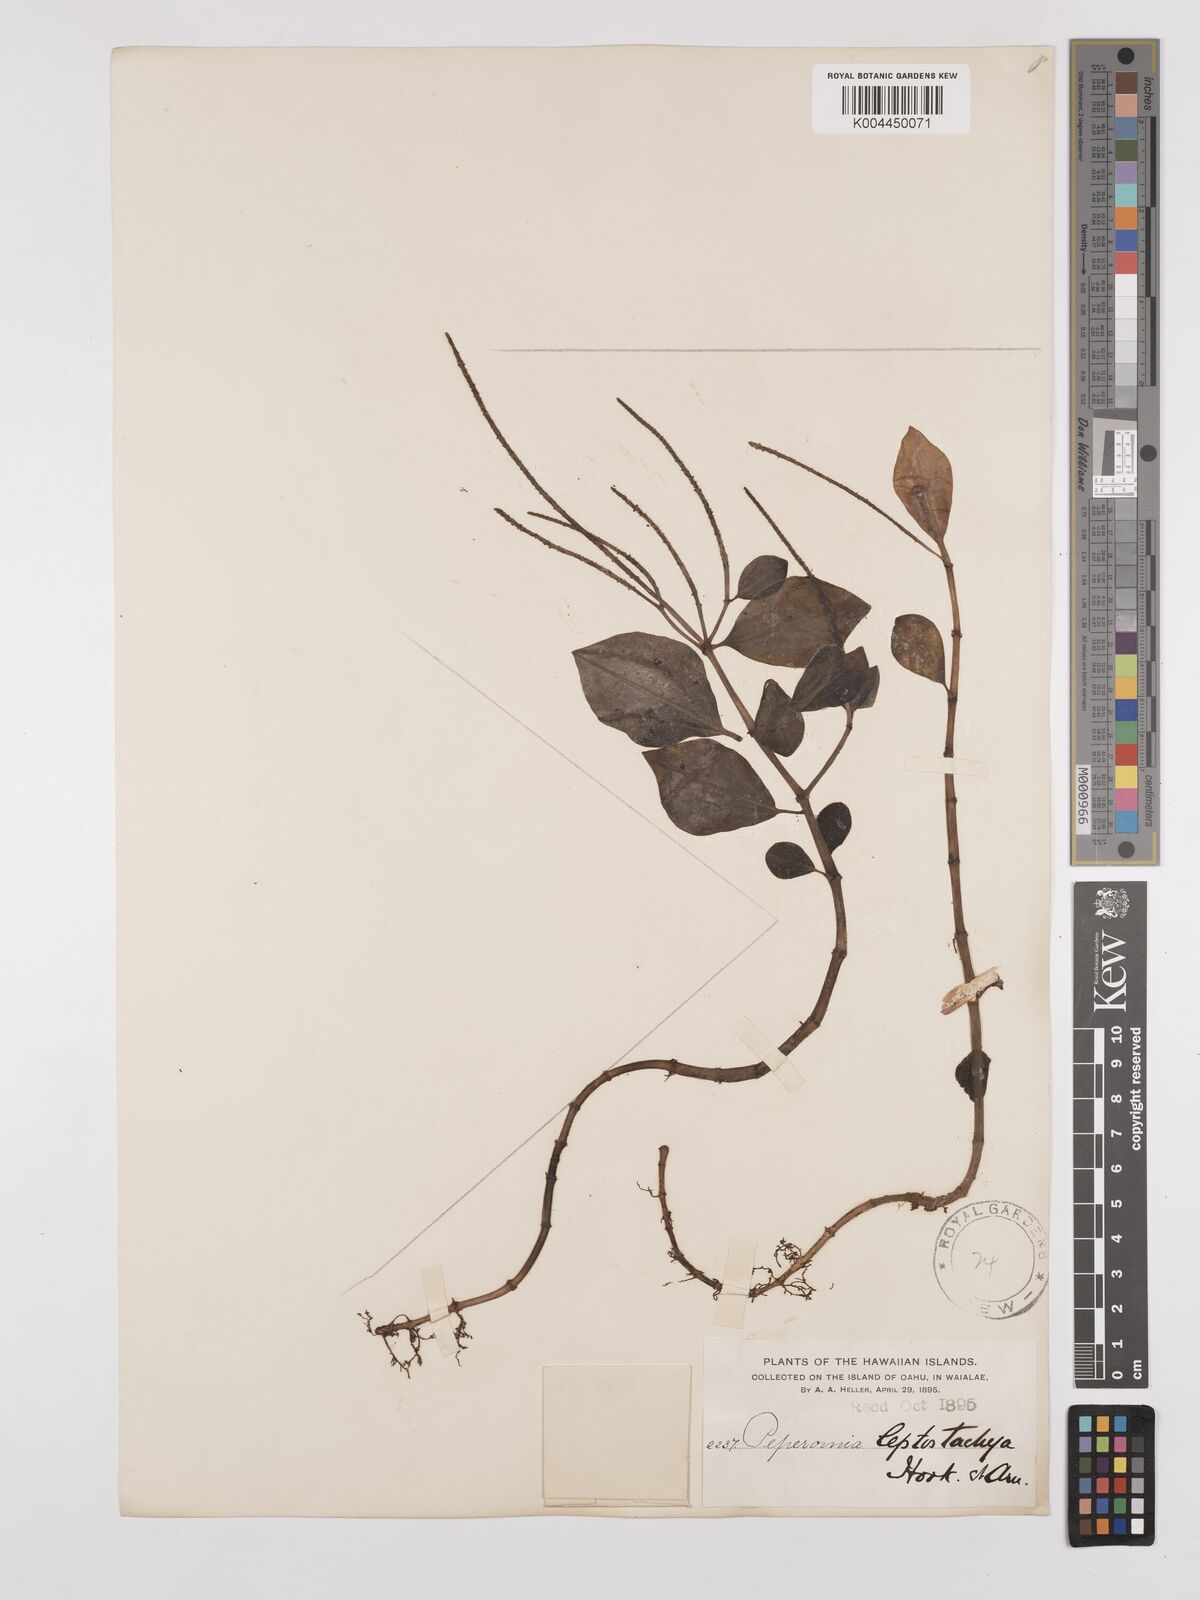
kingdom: Plantae
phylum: Tracheophyta
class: Magnoliopsida
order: Piperales
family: Piperaceae
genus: Peperomia
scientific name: Peperomia leptostachya
